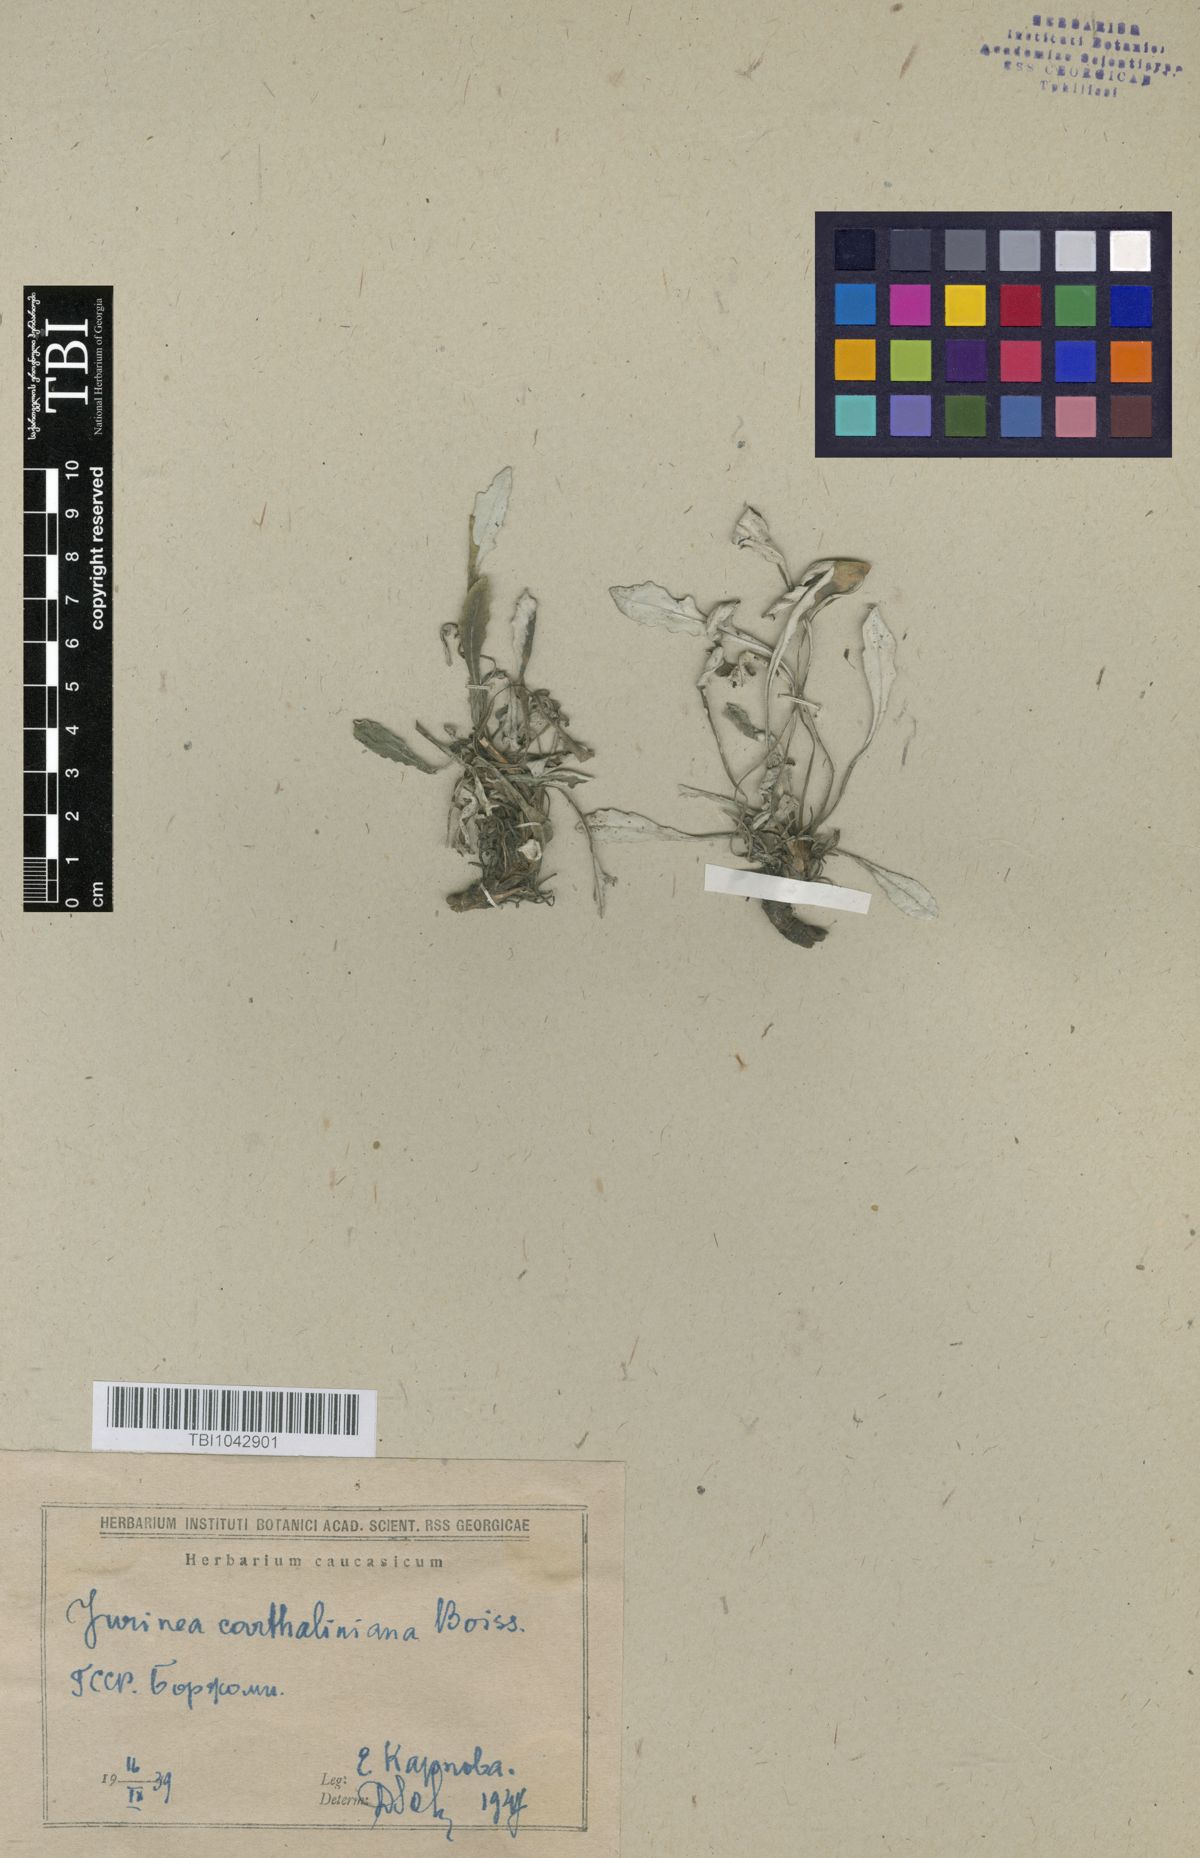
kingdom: Plantae
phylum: Tracheophyta
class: Magnoliopsida
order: Asterales
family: Asteraceae
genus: Jurinea
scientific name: Jurinea cartaliniana
